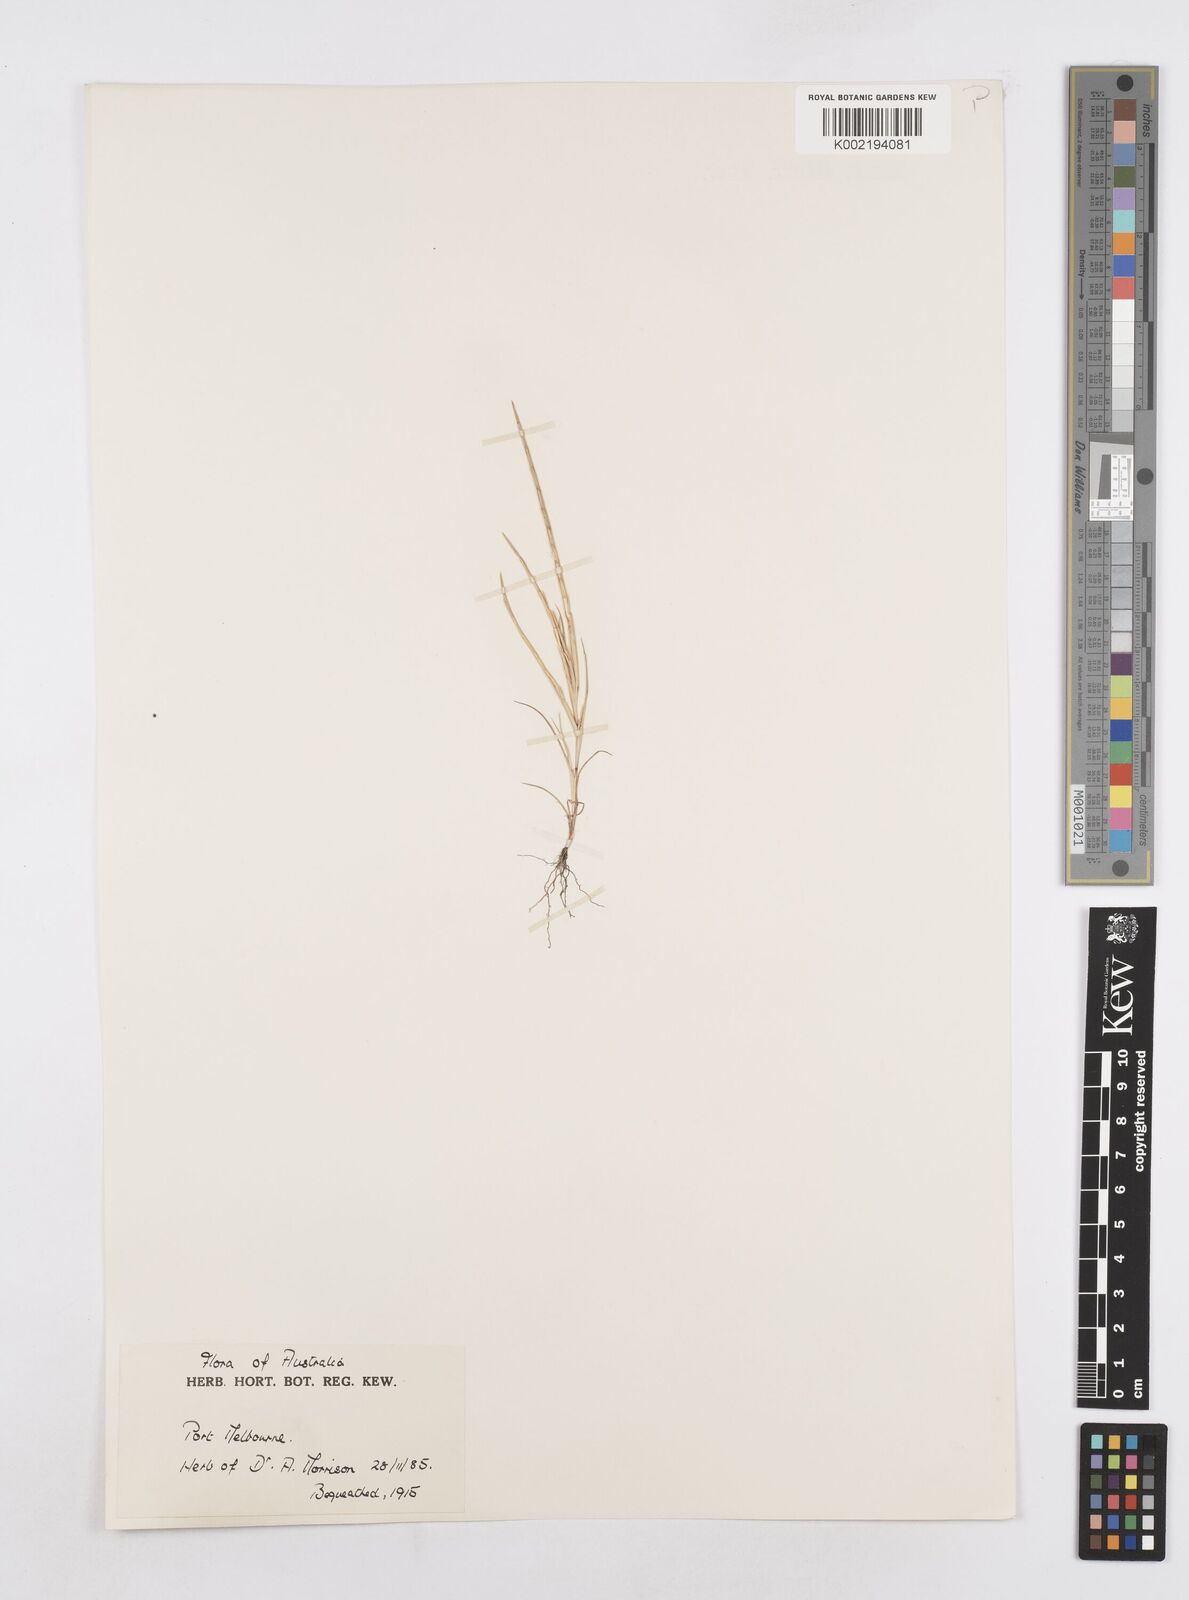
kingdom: Plantae
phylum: Tracheophyta
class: Liliopsida
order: Poales
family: Poaceae
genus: Parapholis
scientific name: Parapholis incurva
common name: Curved sicklegrass
